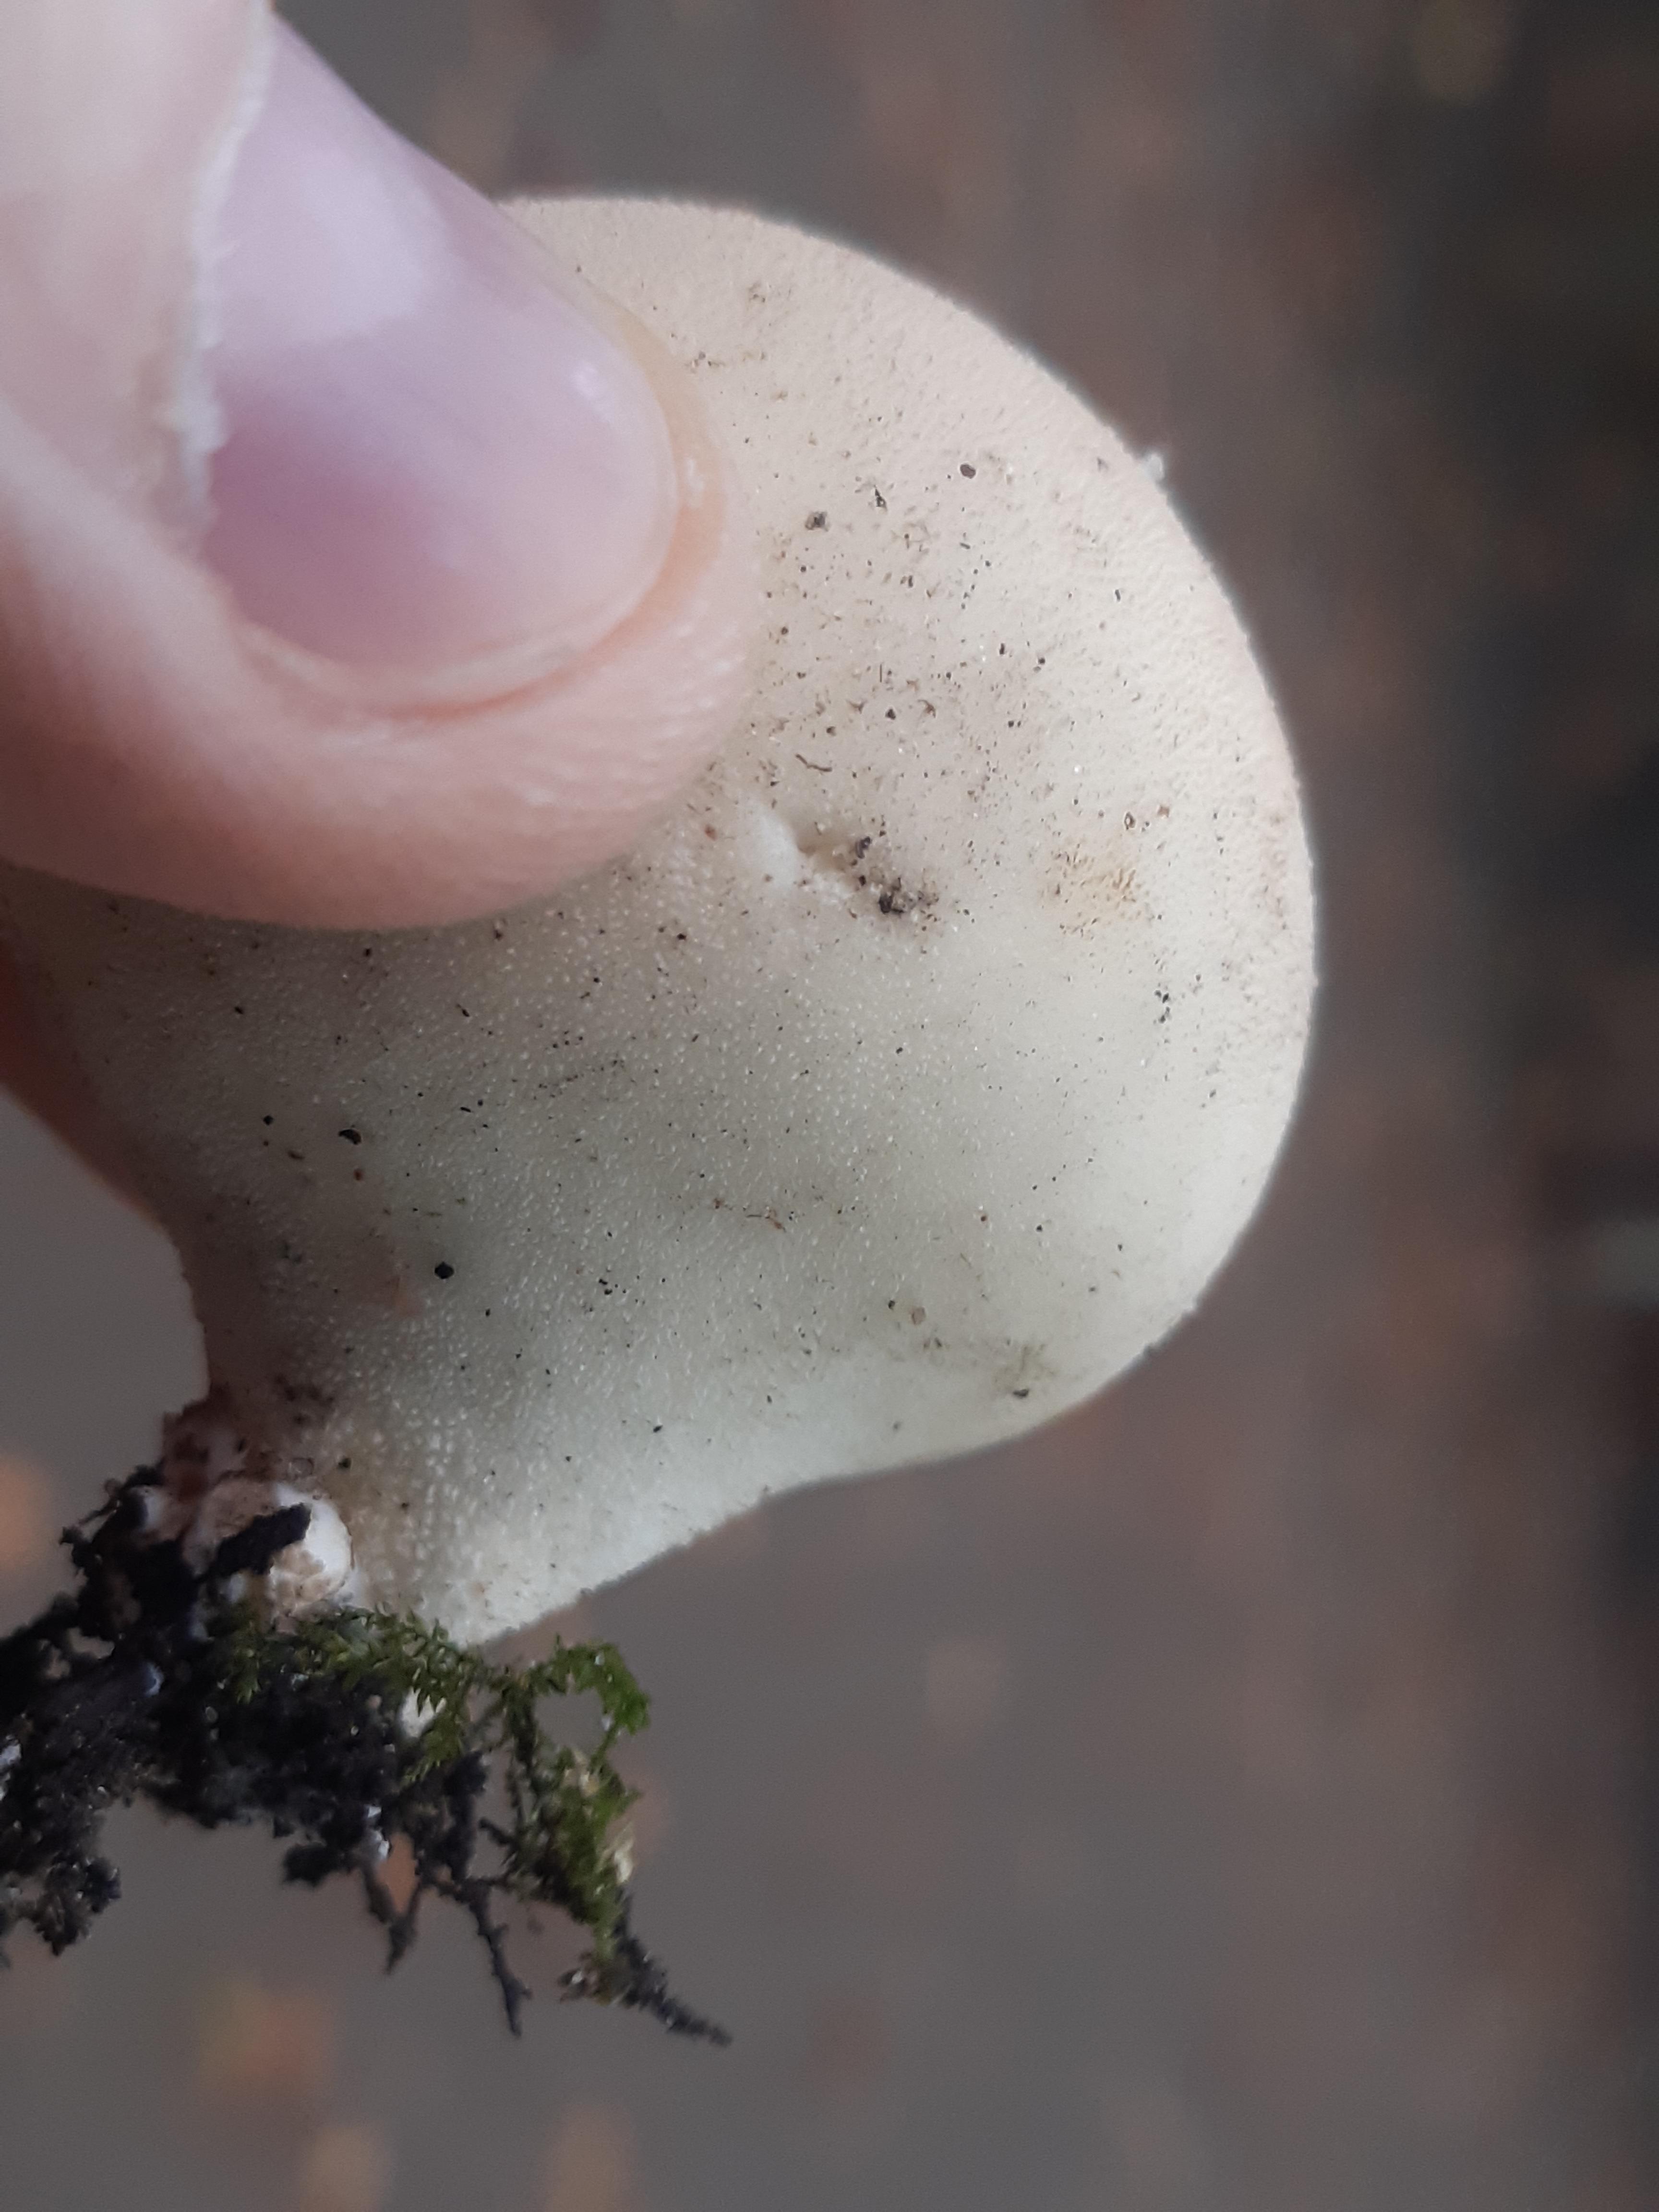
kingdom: Fungi
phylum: Basidiomycota
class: Agaricomycetes
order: Agaricales
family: Agaricaceae
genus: Lycoperdon
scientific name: Lycoperdon
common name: støvbold
